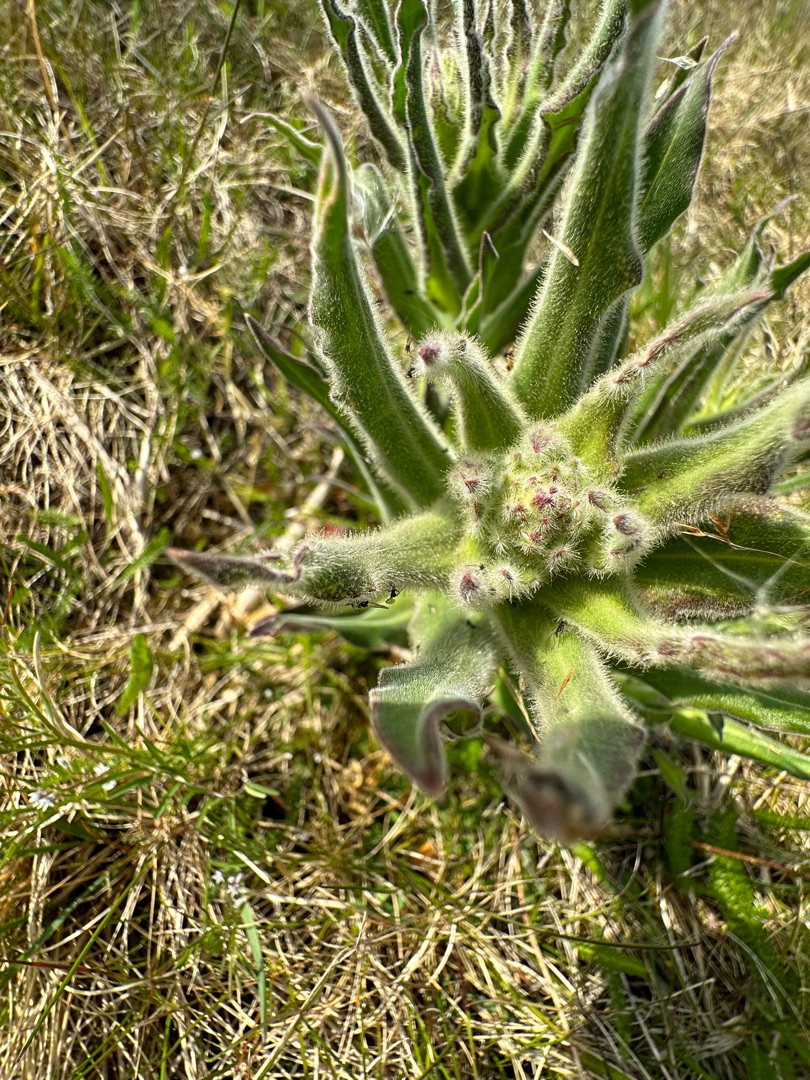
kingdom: Plantae
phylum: Tracheophyta
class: Magnoliopsida
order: Caryophyllales
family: Caryophyllaceae
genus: Silene
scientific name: Silene viscosa
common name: Klæbrig limurt
